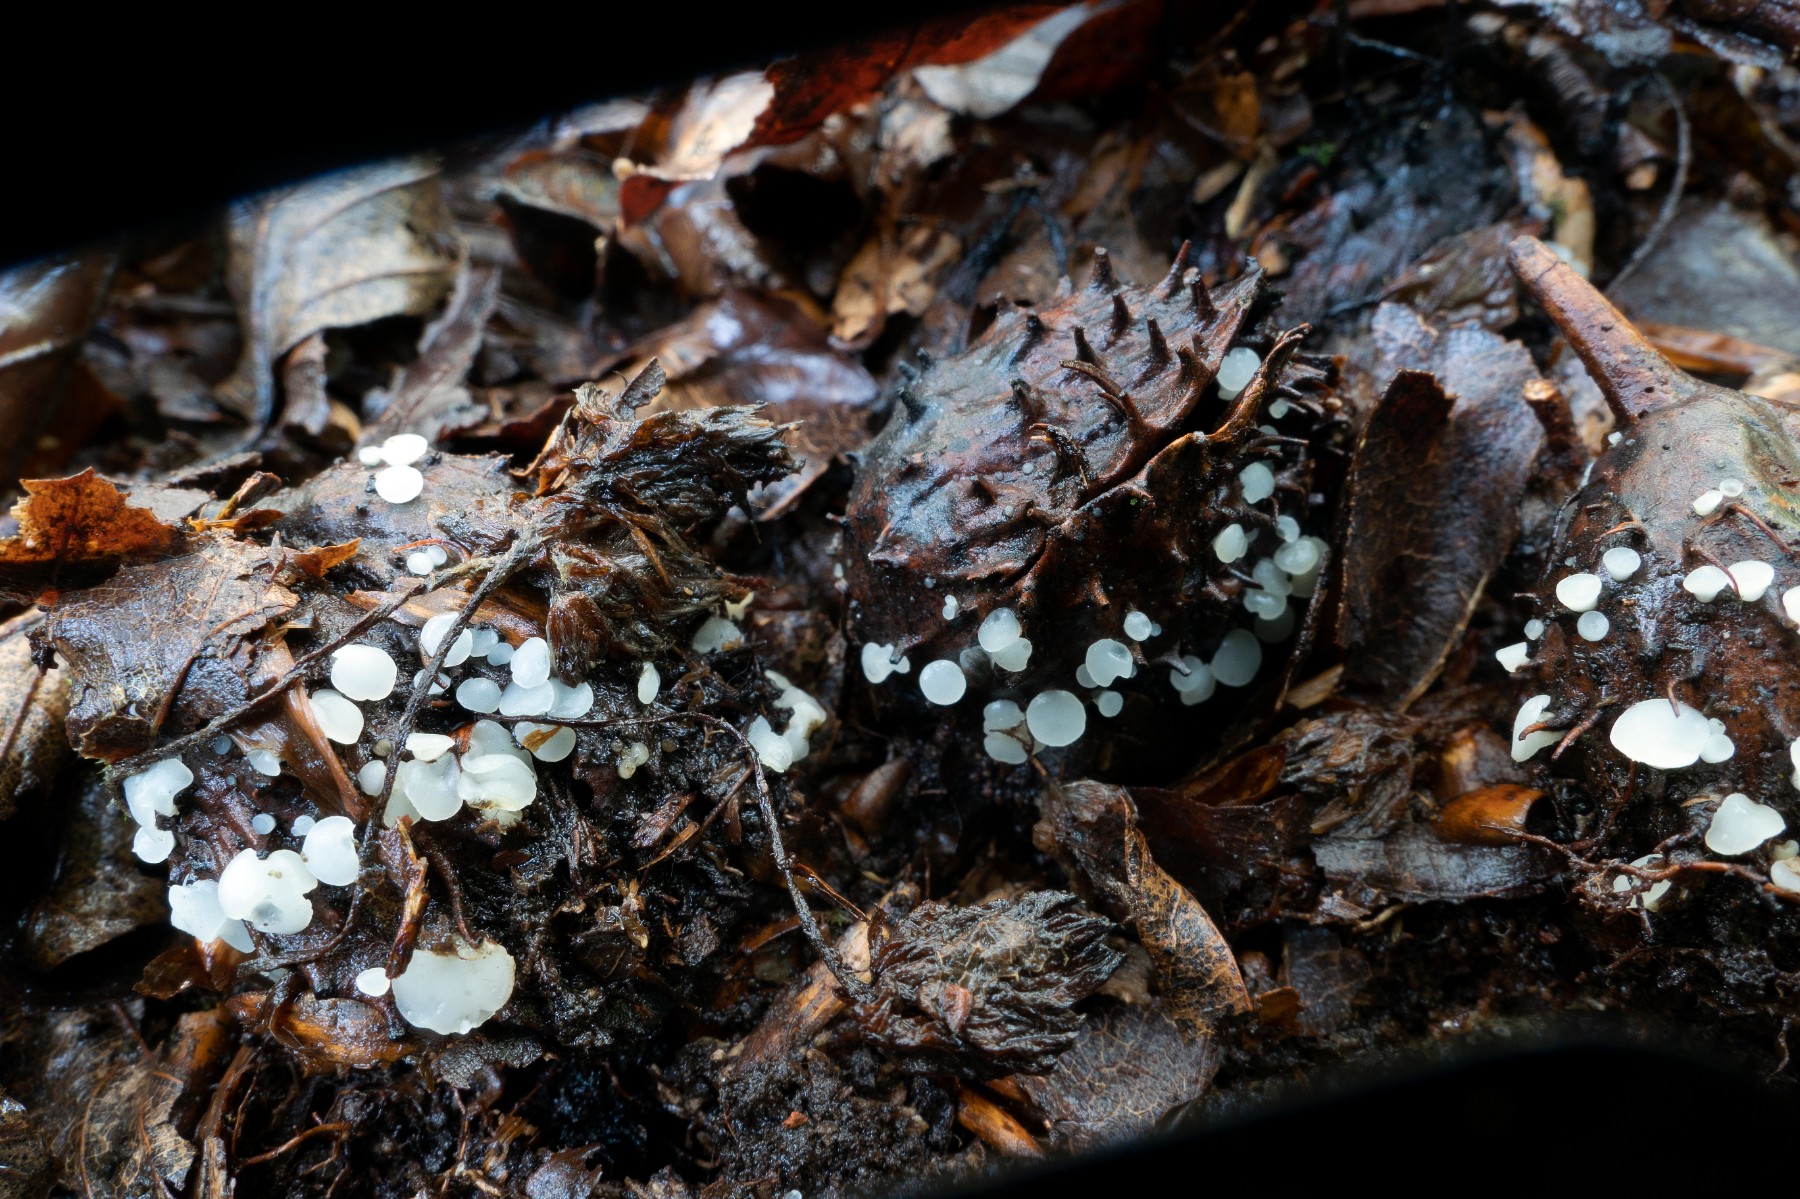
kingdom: Fungi
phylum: Ascomycota
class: Leotiomycetes
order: Helotiales
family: Helotiaceae
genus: Hymenoscyphus
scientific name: Hymenoscyphus fagineus
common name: vellugtende stilkskive
